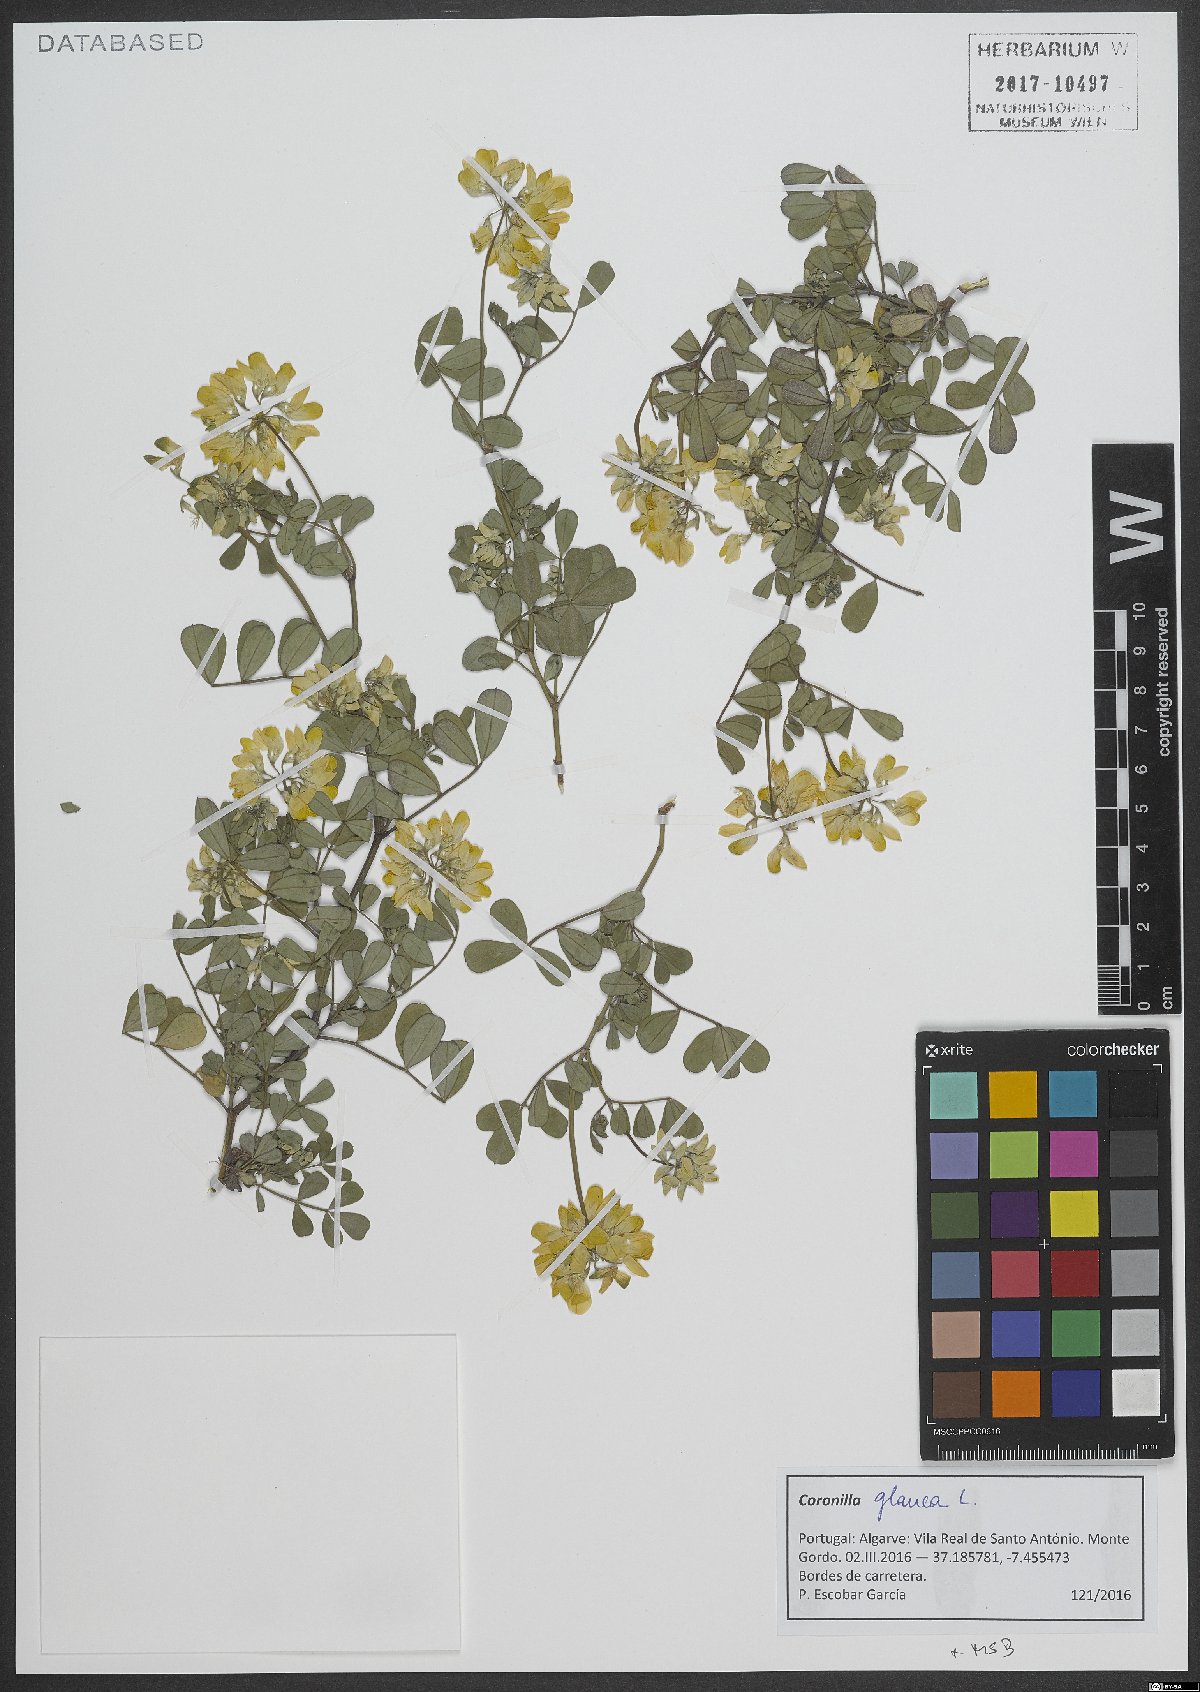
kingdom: Plantae
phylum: Tracheophyta
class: Magnoliopsida
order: Fabales
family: Fabaceae
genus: Coronilla
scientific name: Coronilla valentina
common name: Shrubby scorpion-vetch
